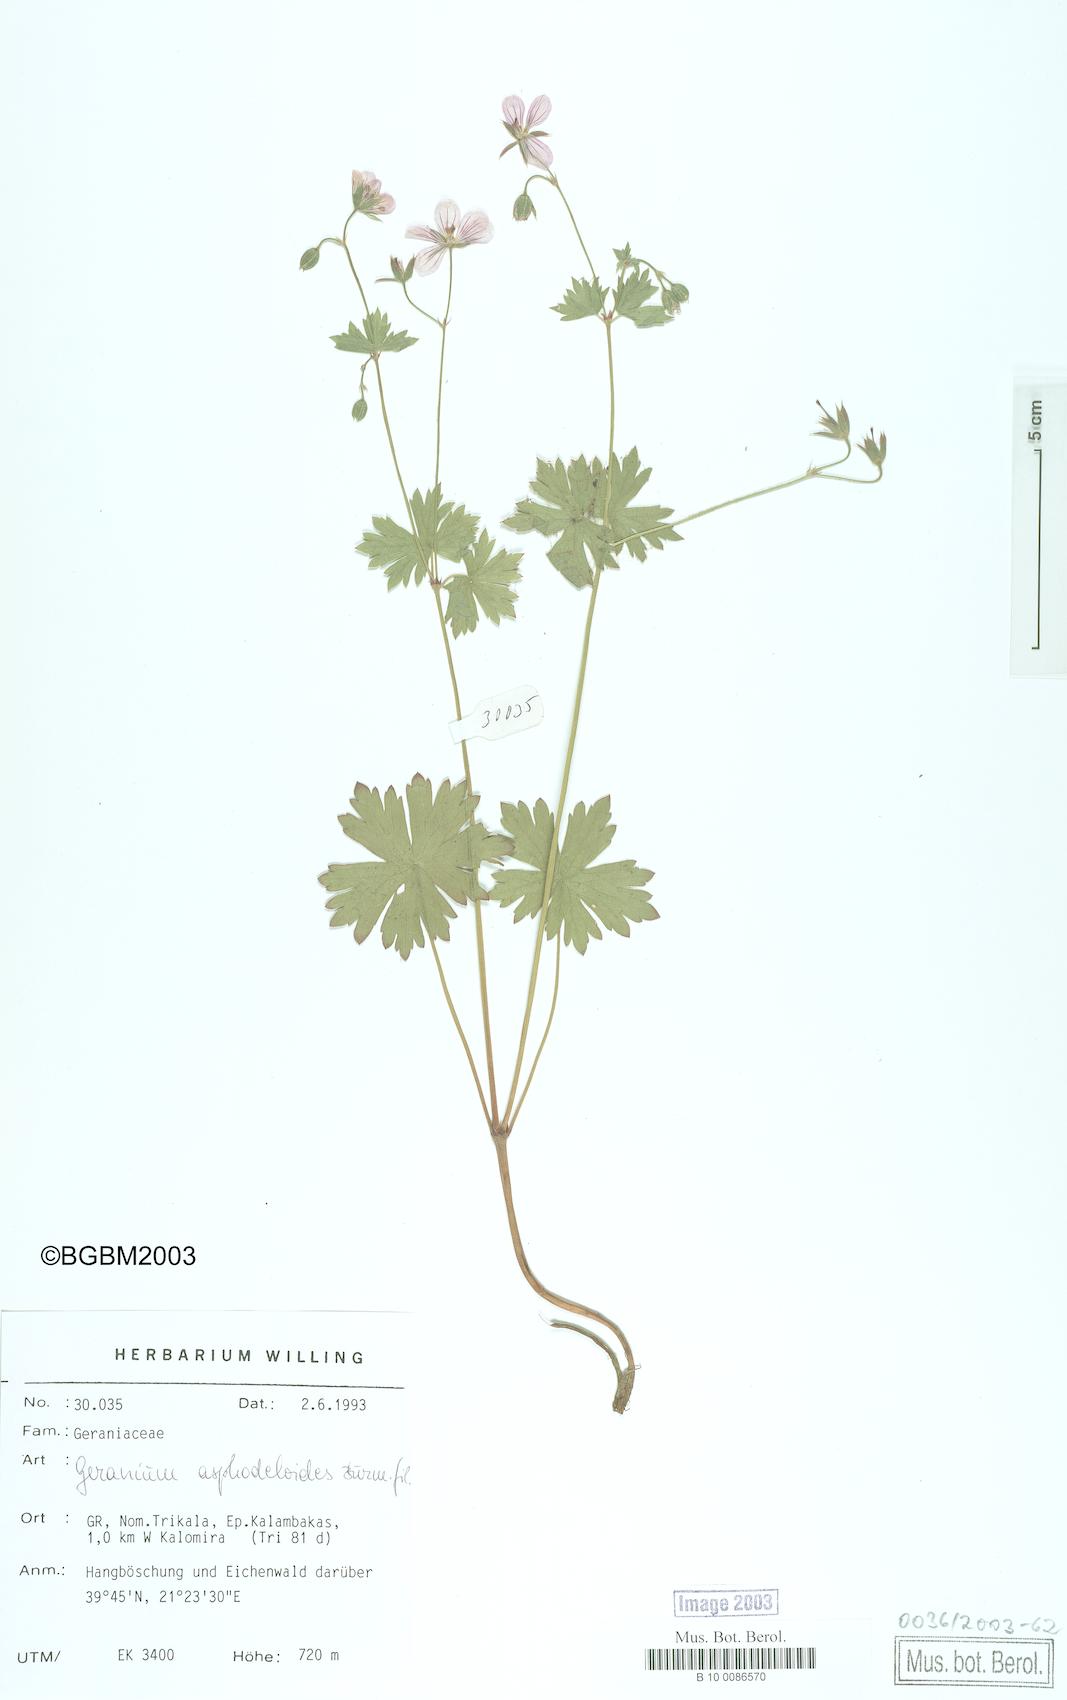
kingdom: Plantae
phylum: Tracheophyta
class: Magnoliopsida
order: Geraniales
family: Geraniaceae
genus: Geranium
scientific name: Geranium asphodeloides
